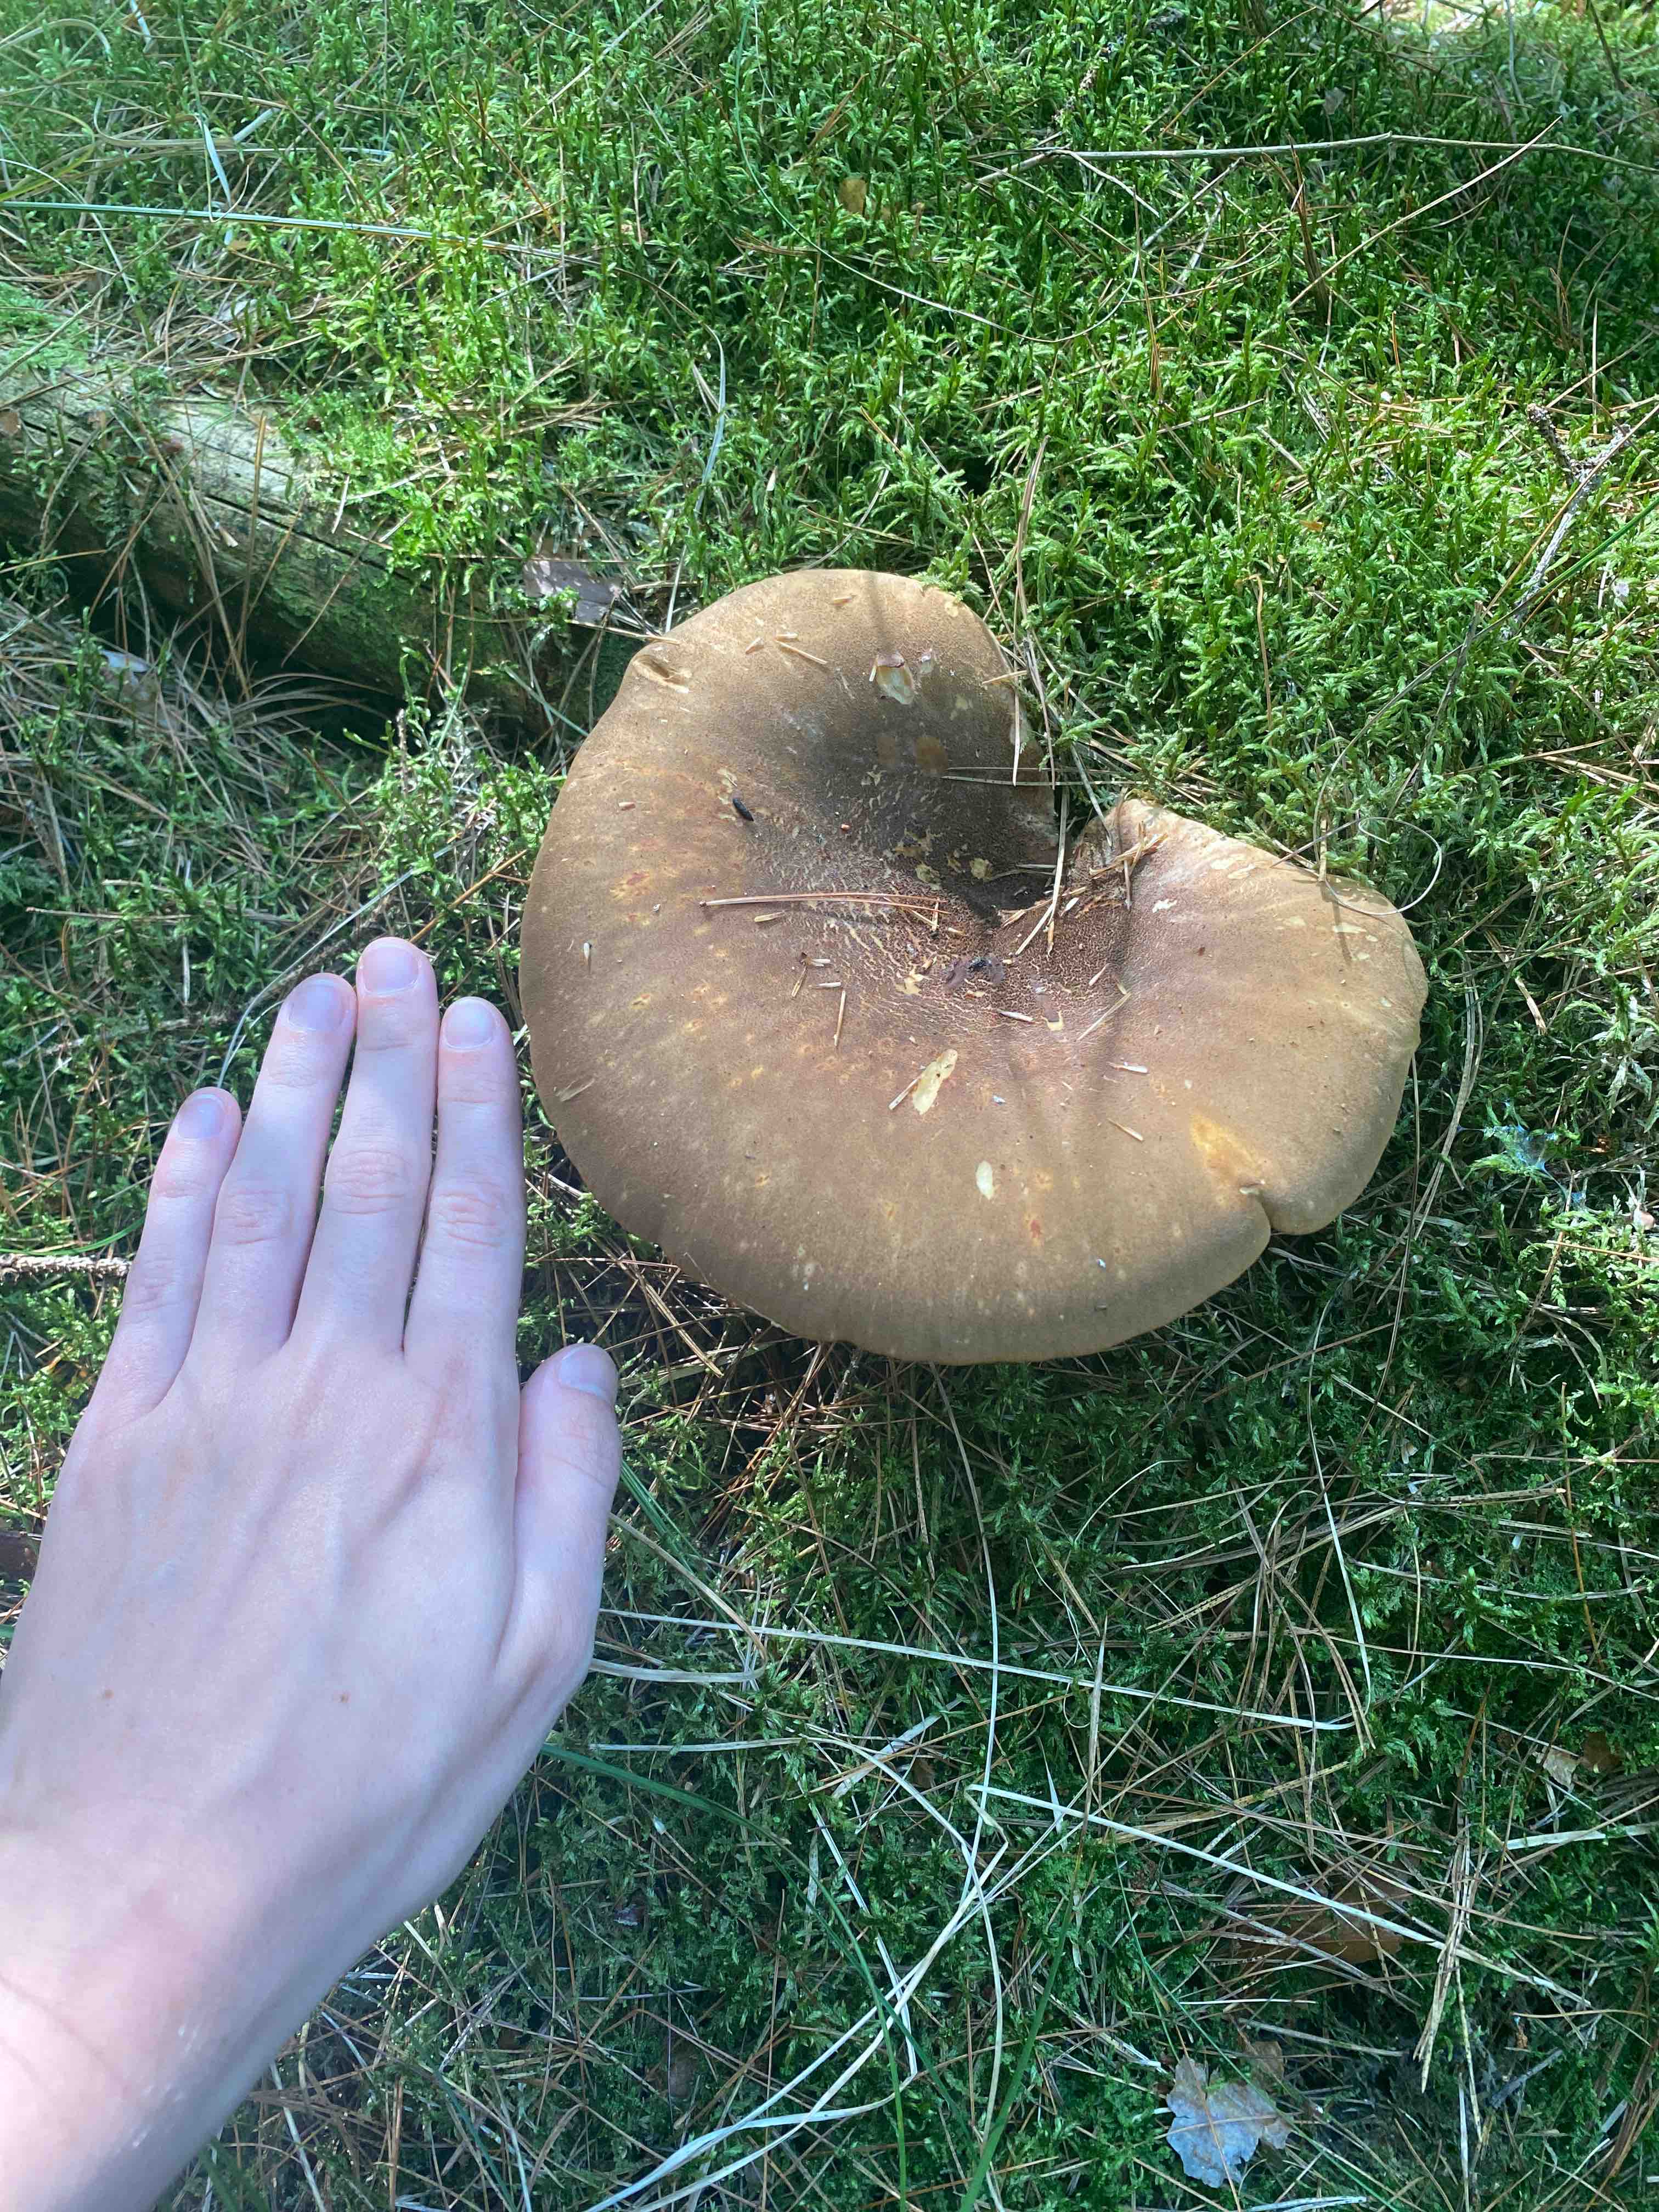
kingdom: Fungi
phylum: Basidiomycota
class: Agaricomycetes
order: Boletales
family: Tapinellaceae
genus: Tapinella
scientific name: Tapinella atrotomentosa
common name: sortfiltet viftesvamp
